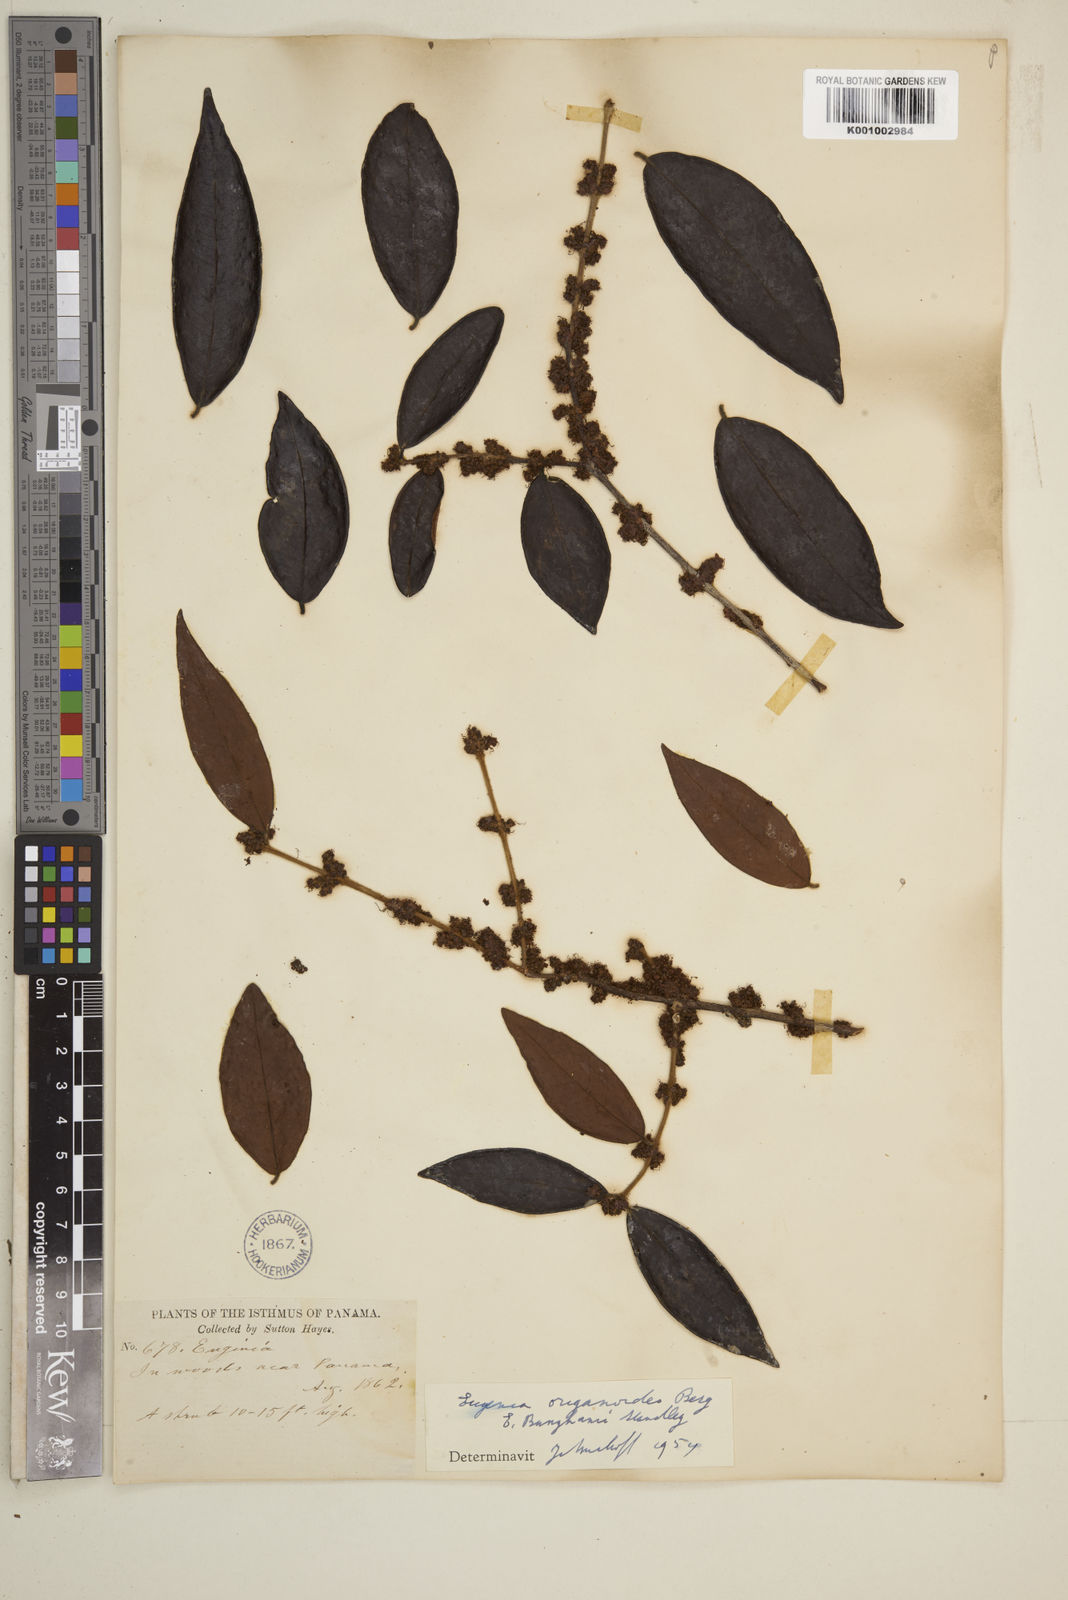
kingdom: Plantae
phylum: Tracheophyta
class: Magnoliopsida
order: Myrtales
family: Myrtaceae
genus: Eugenia
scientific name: Eugenia venezuelensis
